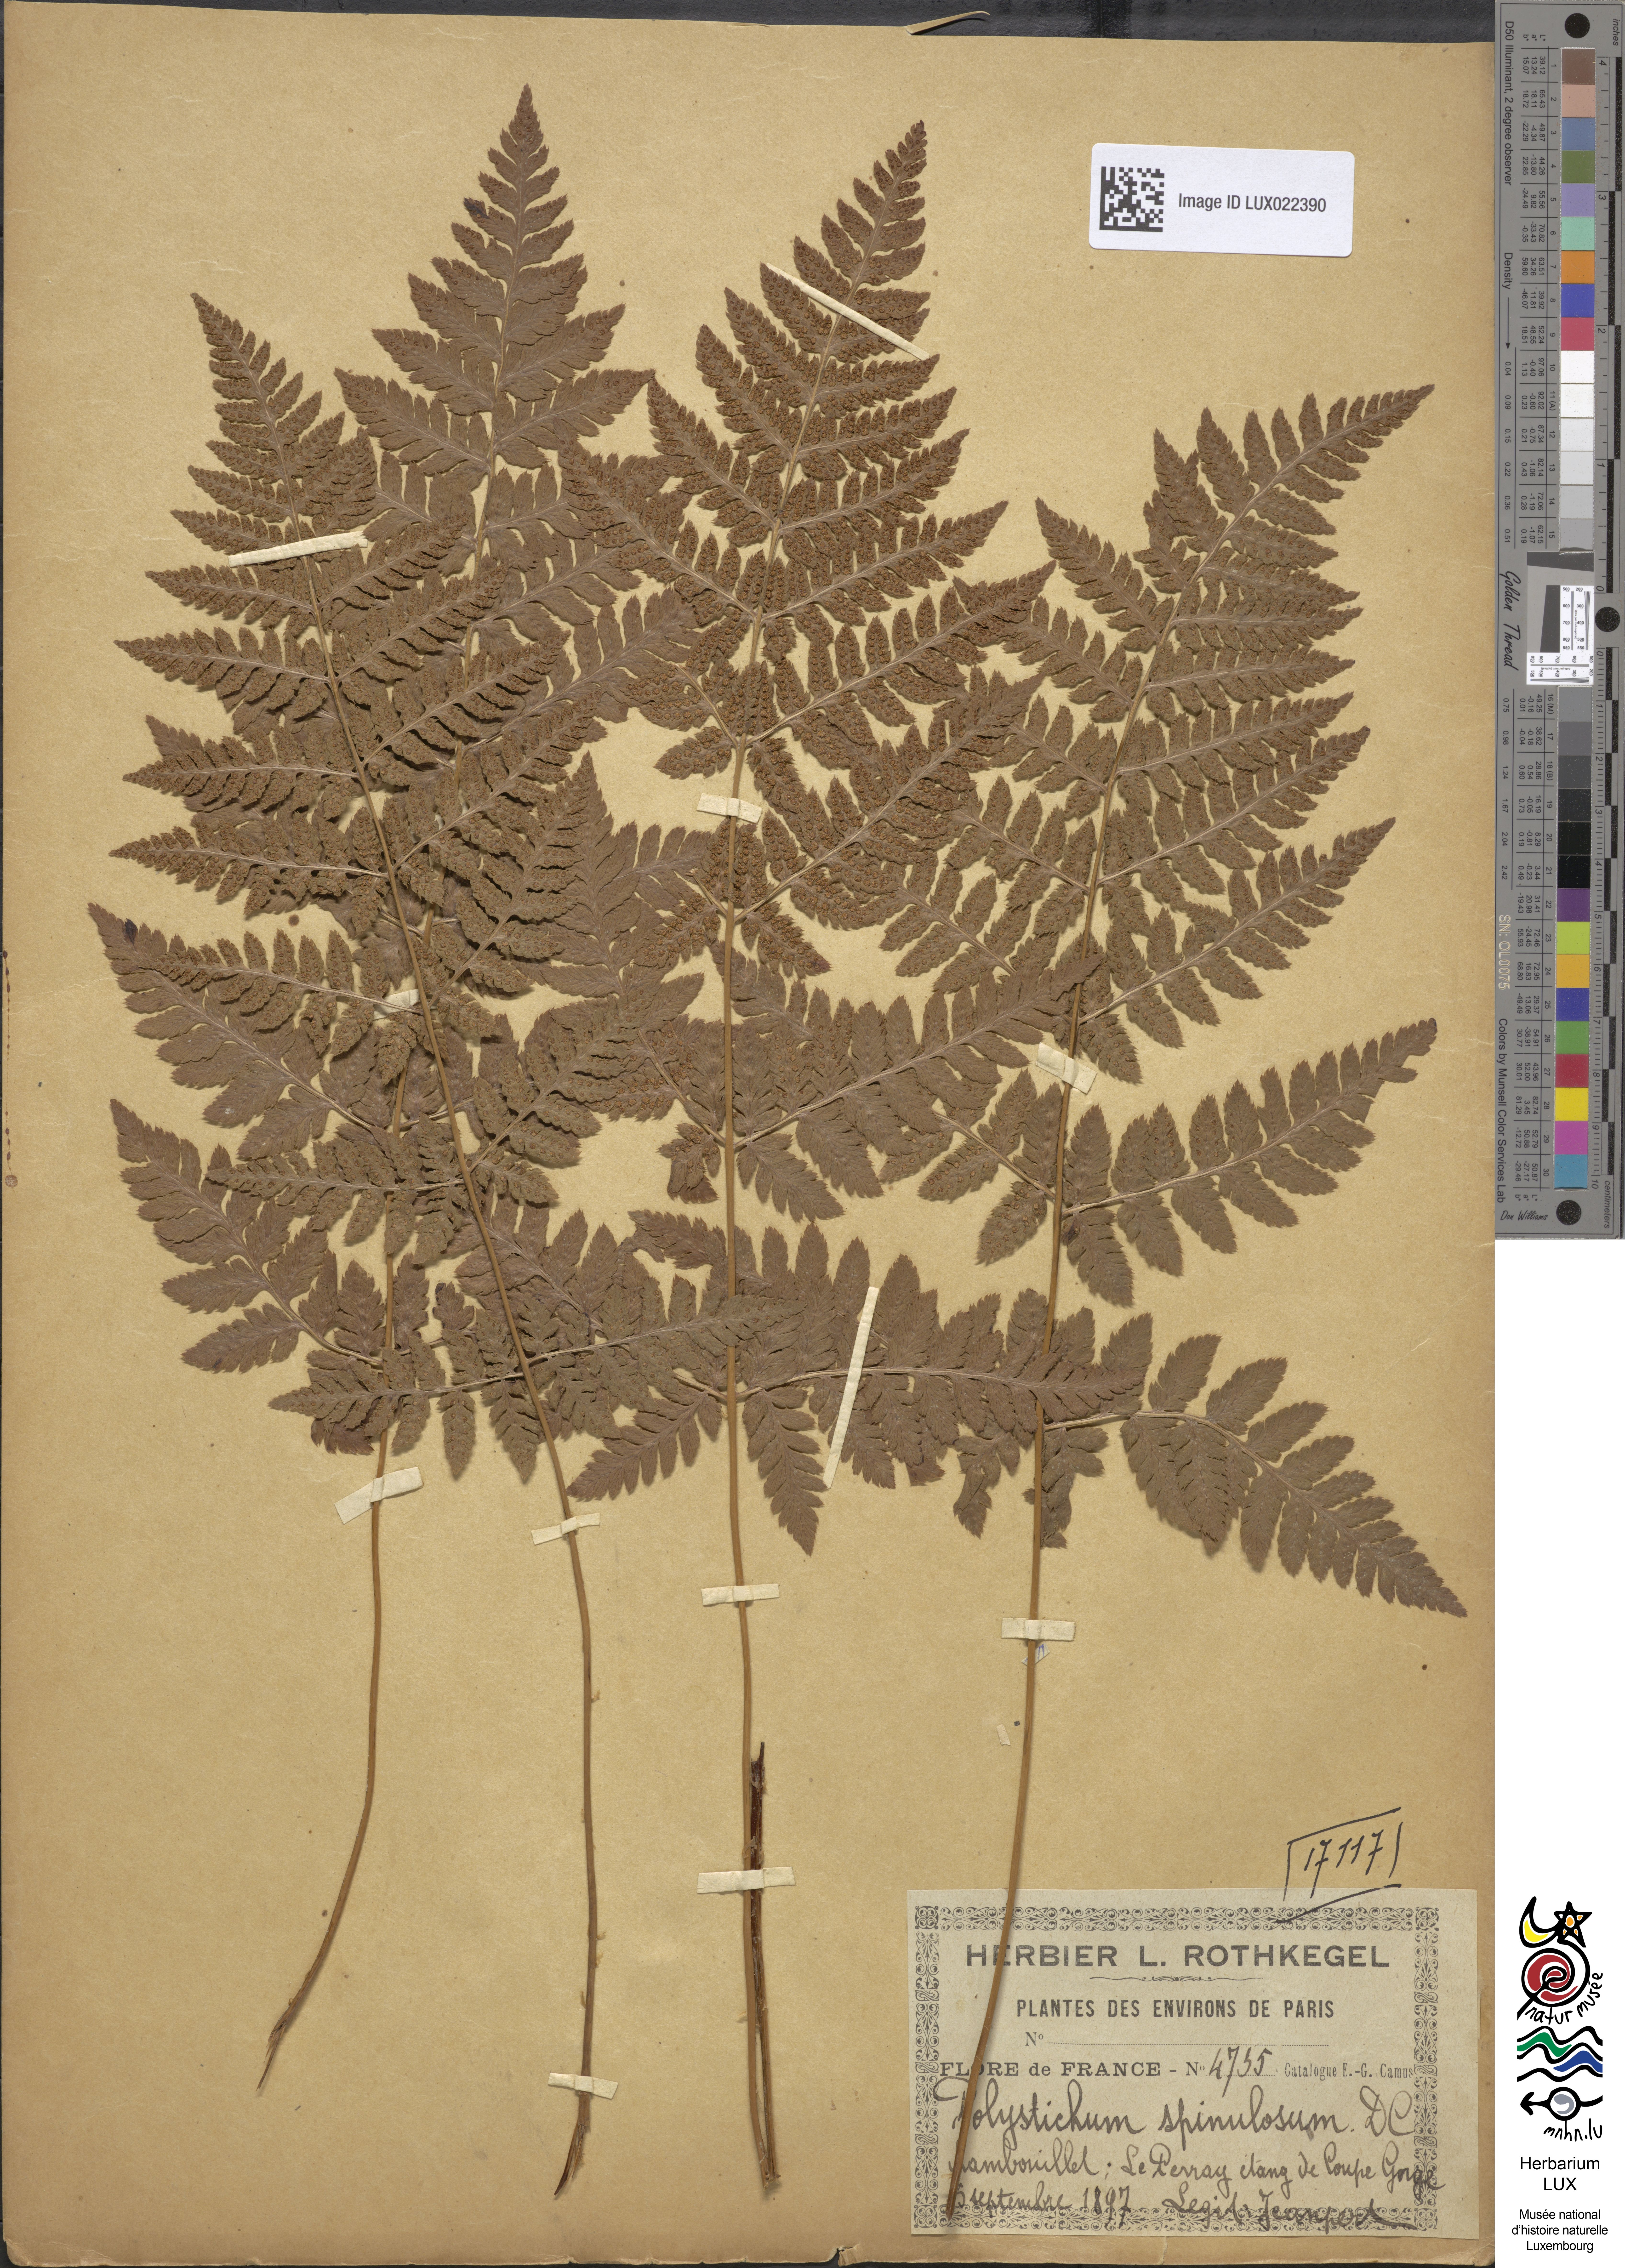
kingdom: Plantae
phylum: Tracheophyta
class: Polypodiopsida
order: Polypodiales
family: Dryopteridaceae
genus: Dryopteris
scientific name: Dryopteris carthusiana
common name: Narrow buckler-fern
